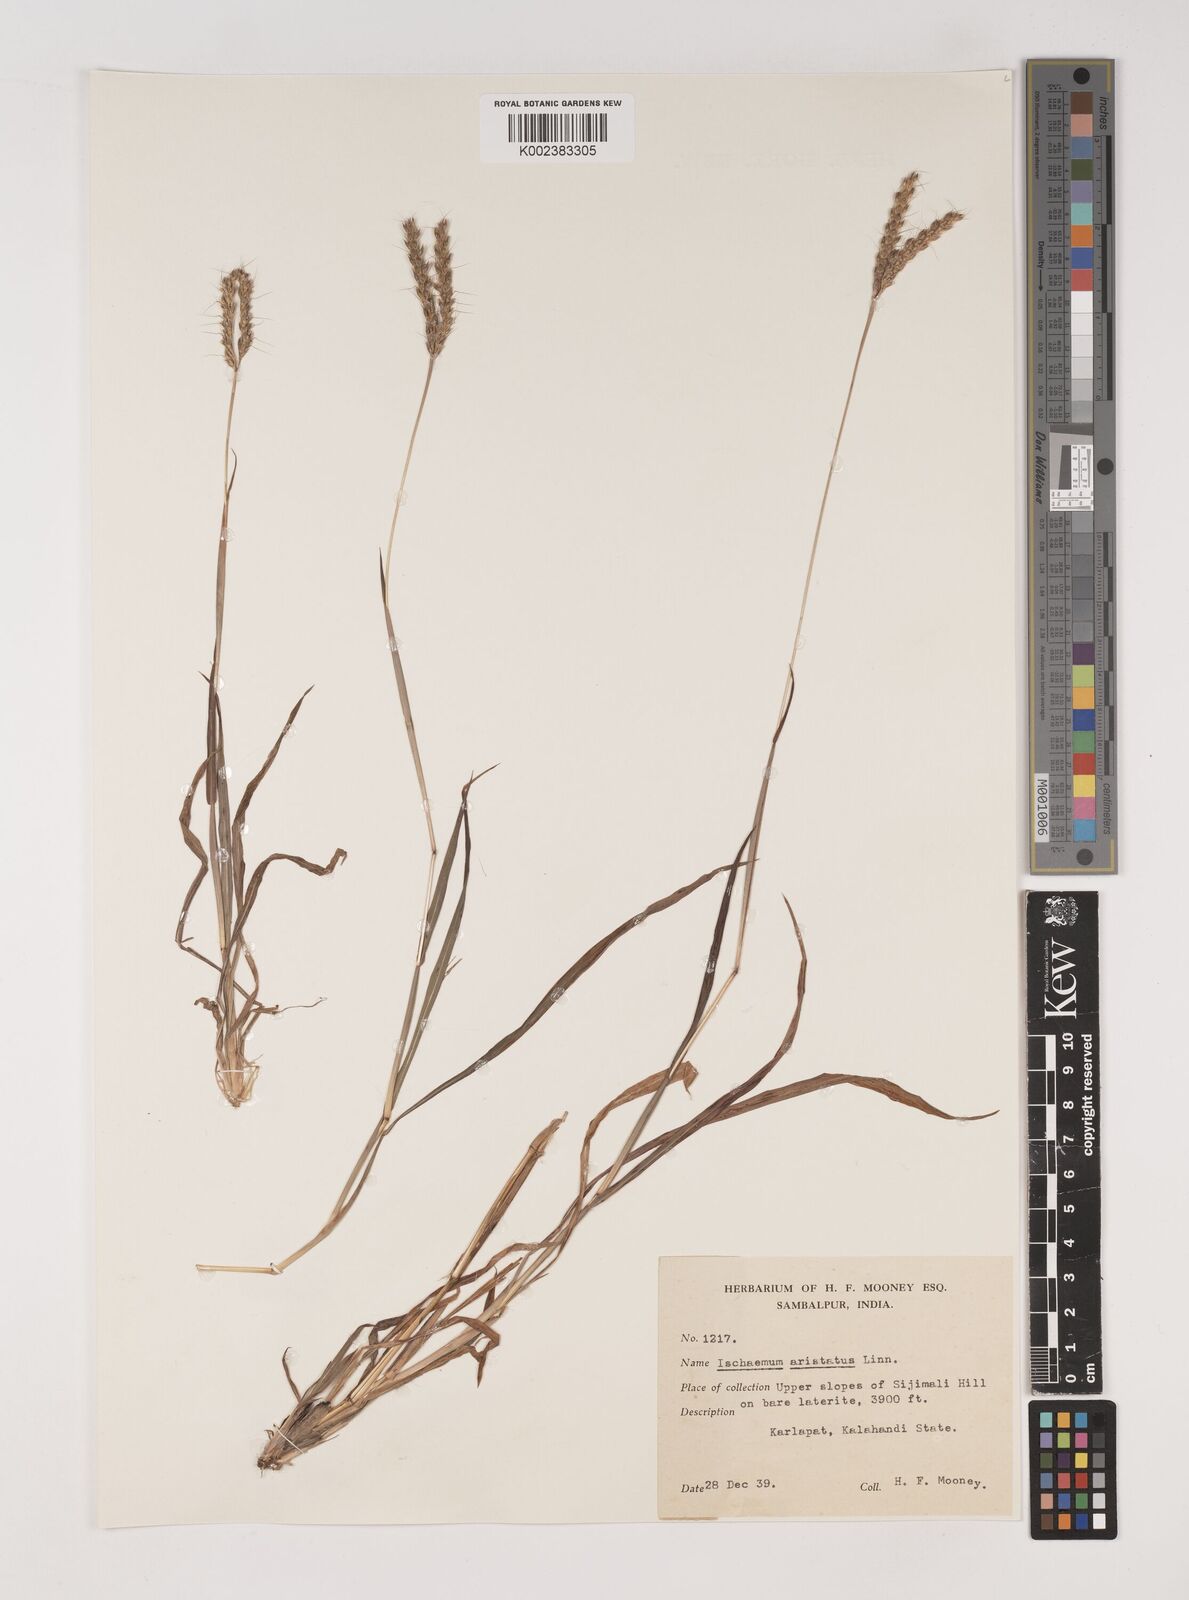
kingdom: Plantae
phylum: Tracheophyta
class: Liliopsida
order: Poales
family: Poaceae
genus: Polytrias
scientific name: Polytrias indica
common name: Indian murainagrass
